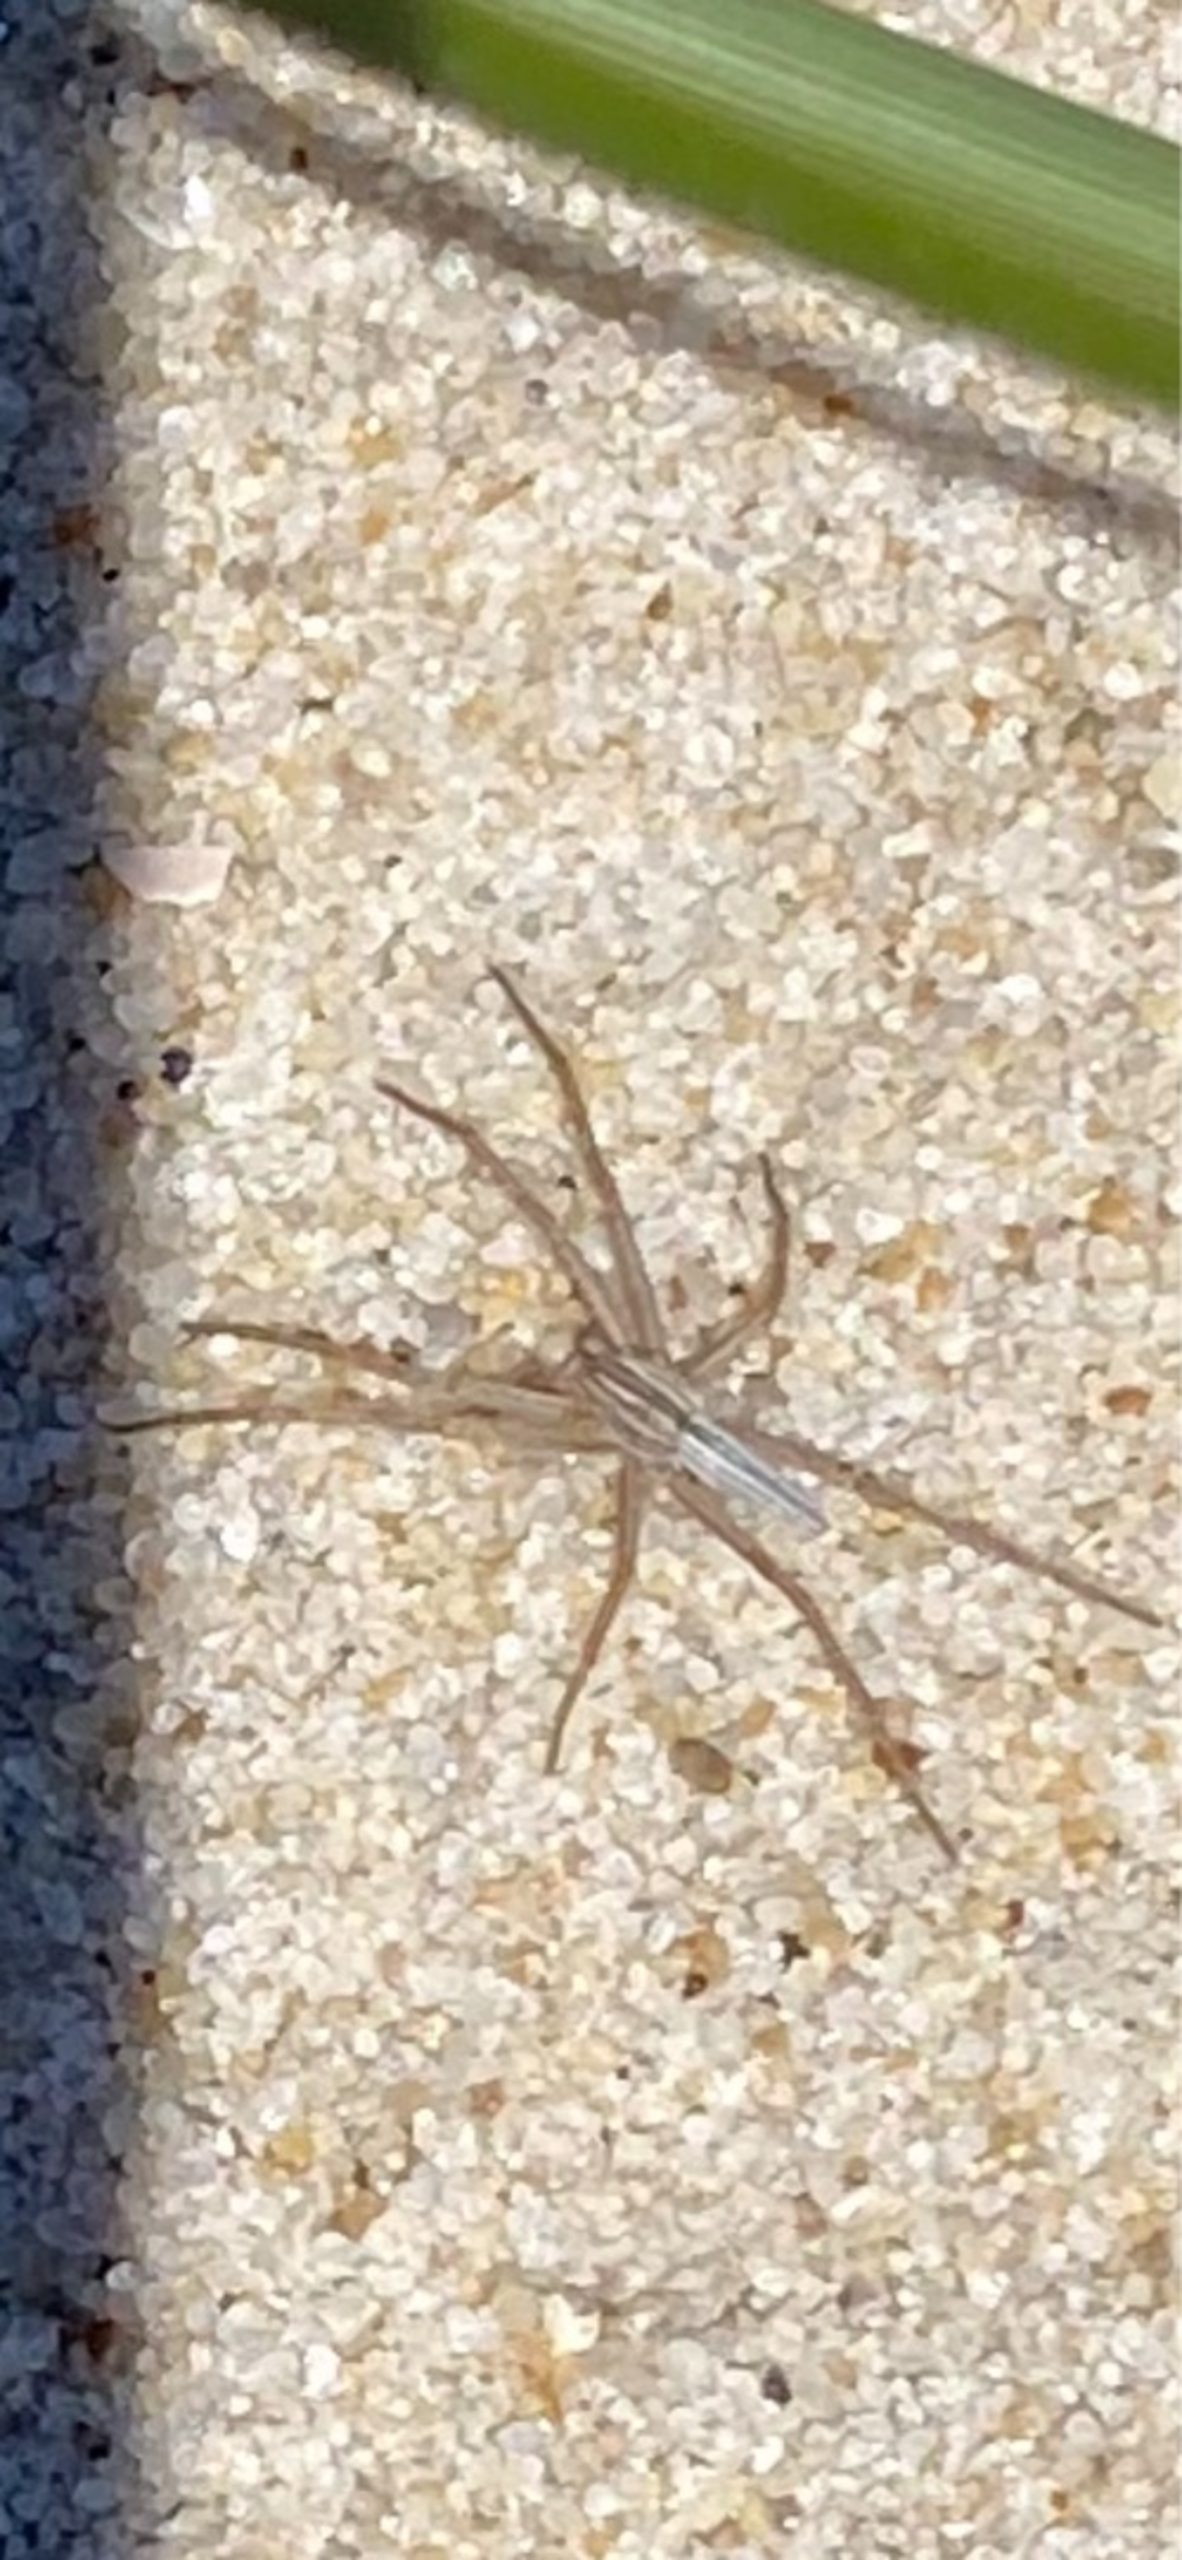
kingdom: Animalia
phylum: Arthropoda
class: Arachnida
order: Araneae
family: Philodromidae
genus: Tibellus
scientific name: Tibellus
